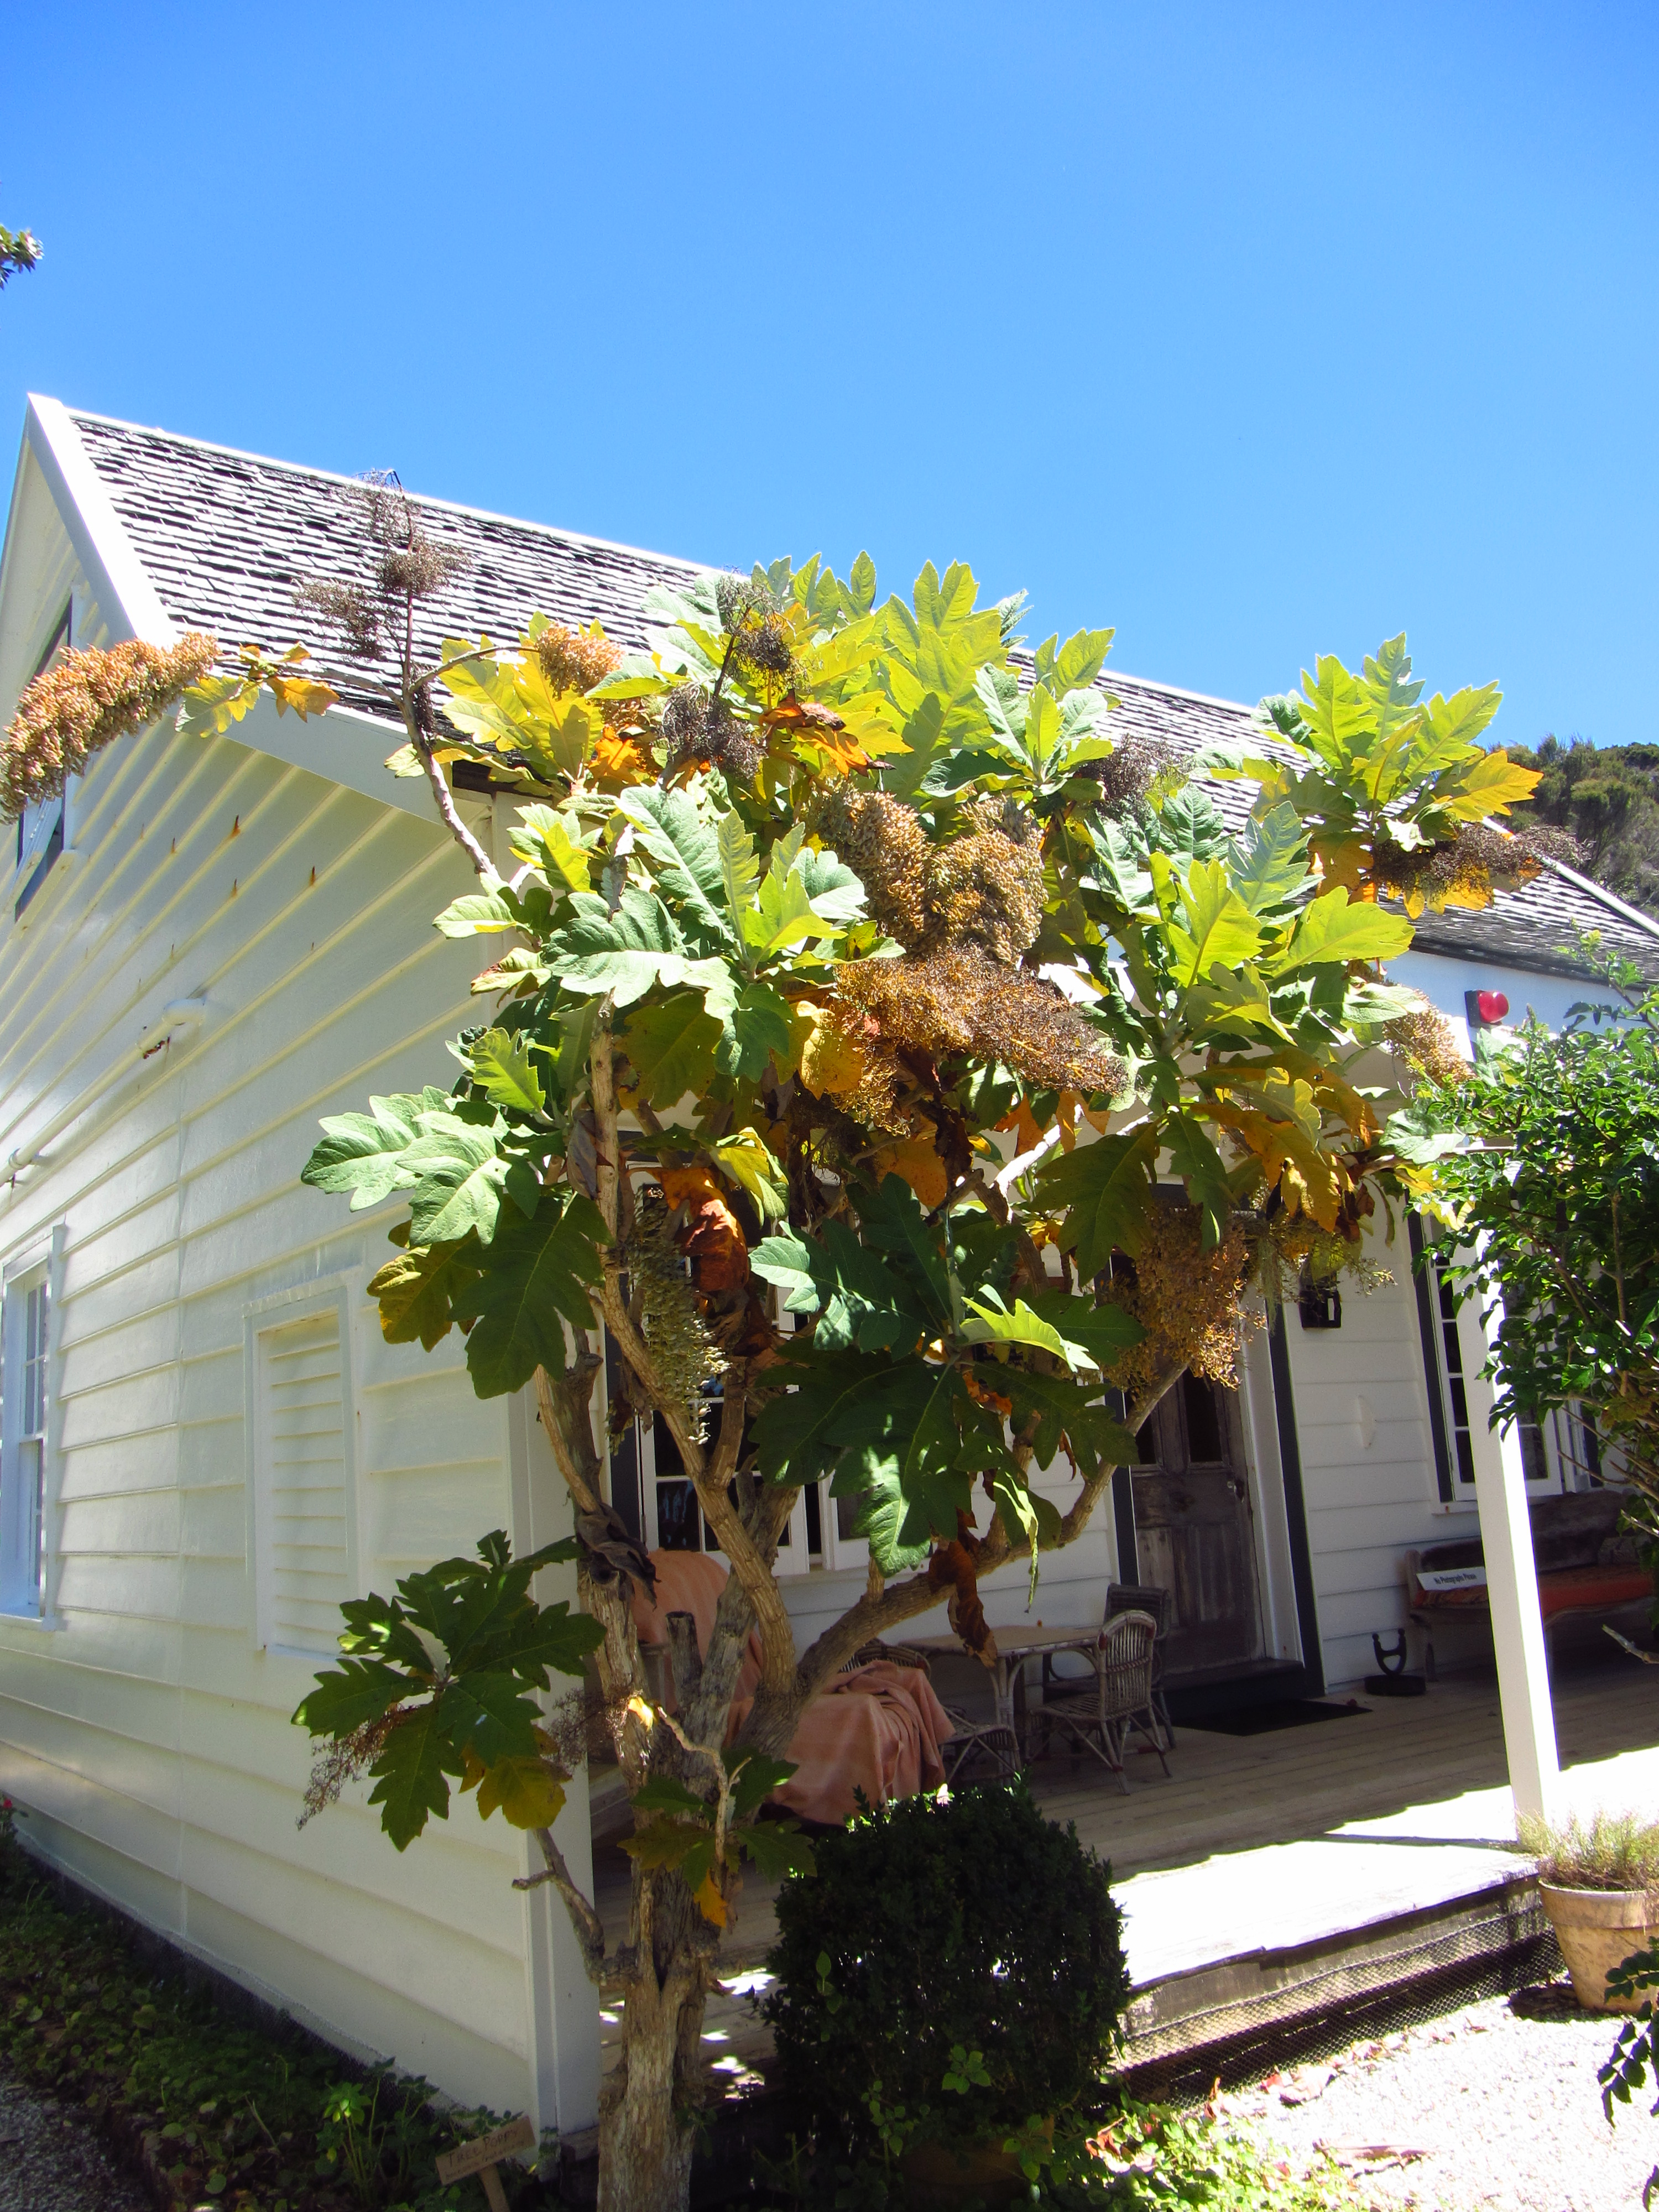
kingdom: Plantae
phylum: Tracheophyta
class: Magnoliopsida
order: Ranunculales
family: Papaveraceae
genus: Bocconia
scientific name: Bocconia frutescens
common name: Tree poppy
